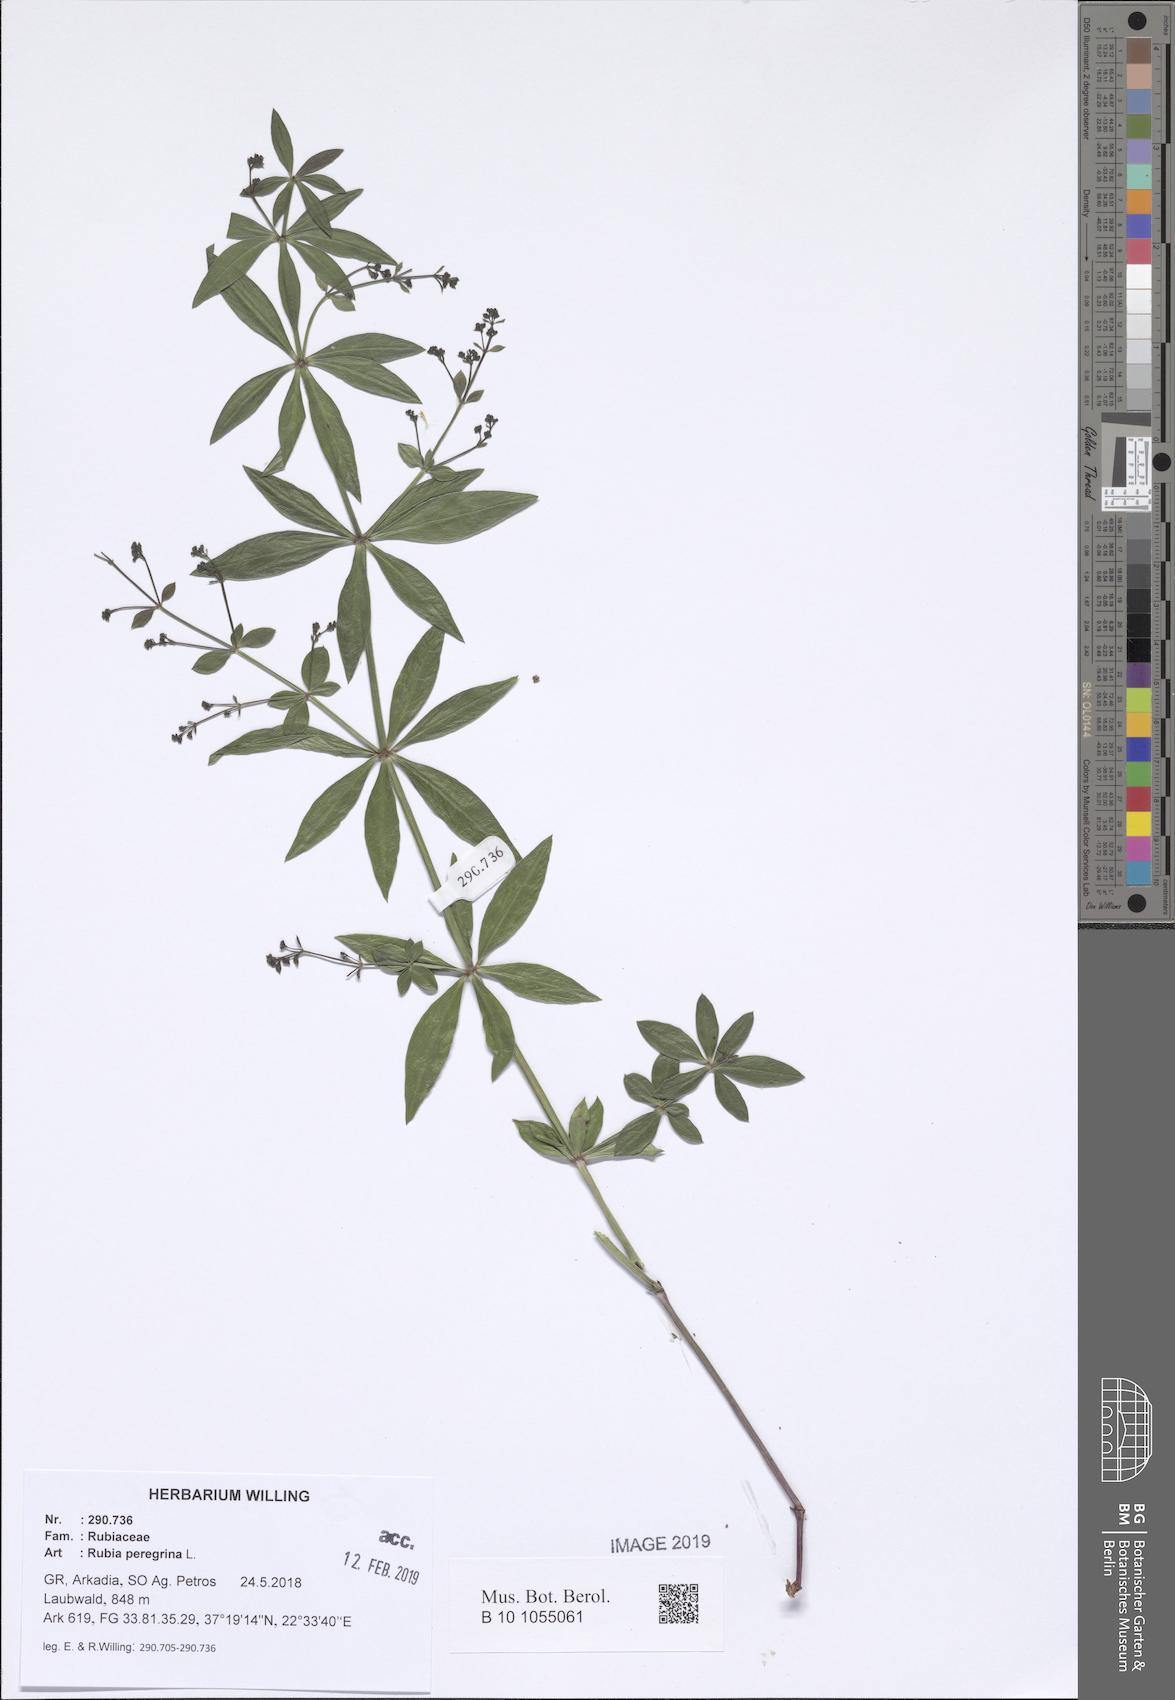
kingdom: Plantae
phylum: Tracheophyta
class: Magnoliopsida
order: Gentianales
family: Rubiaceae
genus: Rubia
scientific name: Rubia peregrina
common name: Wild madder
